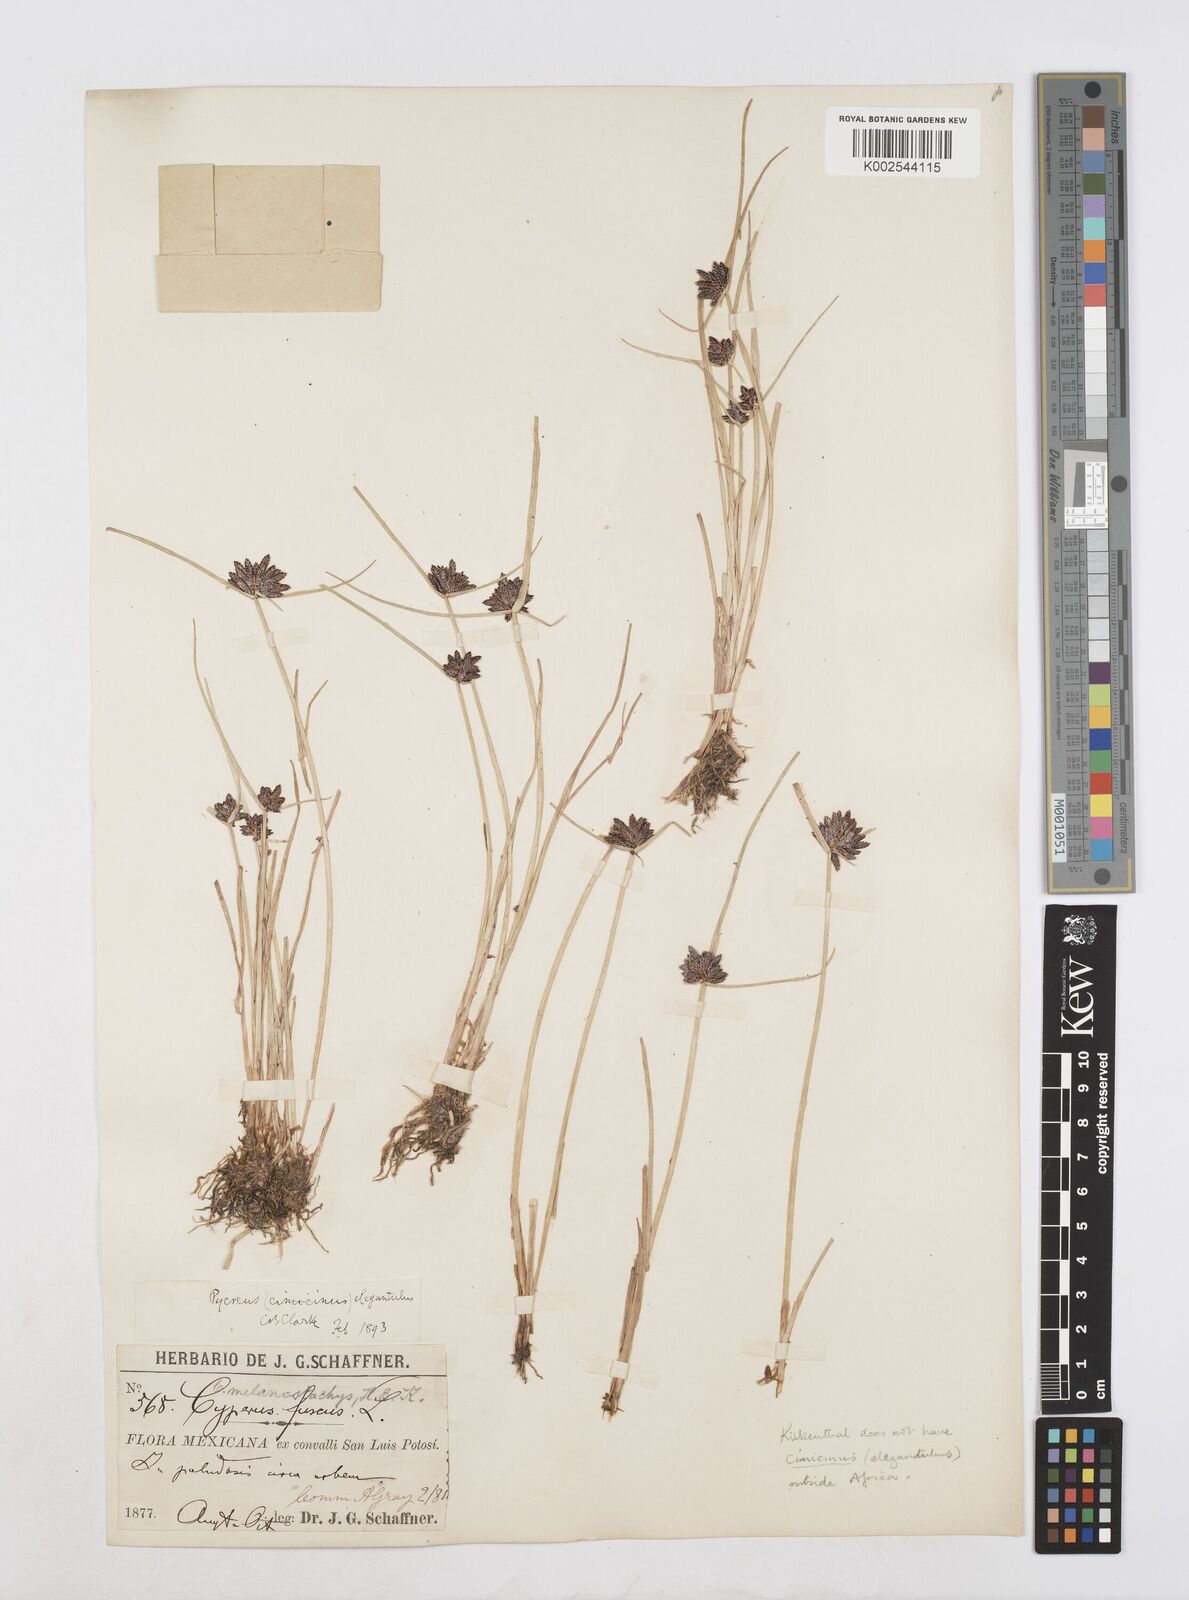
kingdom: Plantae
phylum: Tracheophyta
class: Liliopsida
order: Poales
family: Cyperaceae
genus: Cyperus
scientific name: Cyperus melanostachyus
